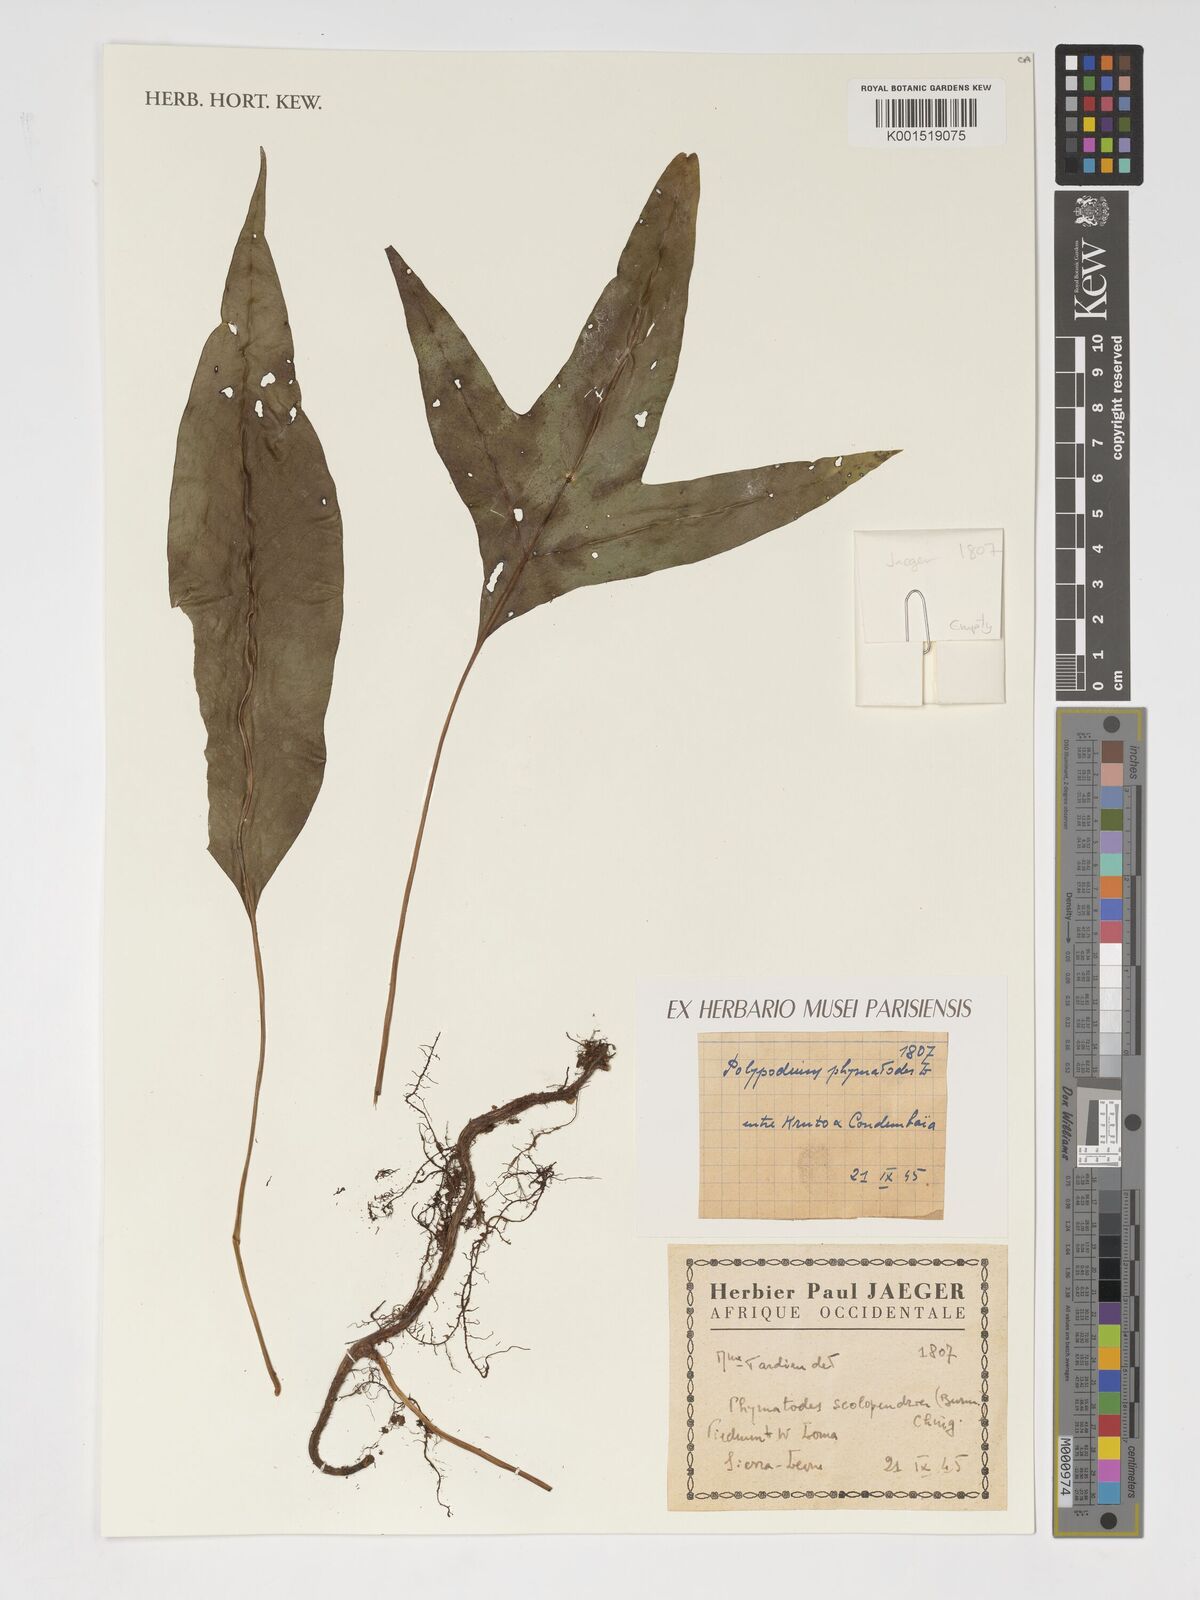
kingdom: Plantae
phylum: Tracheophyta
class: Polypodiopsida
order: Polypodiales
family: Polypodiaceae
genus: Microsorum
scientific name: Microsorum scolopendria
